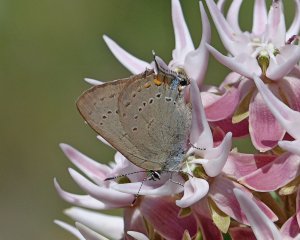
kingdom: Animalia
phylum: Arthropoda
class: Insecta
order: Lepidoptera
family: Lycaenidae
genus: Strymon
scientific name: Strymon sylvinus
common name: Sylvan Hairstreak
